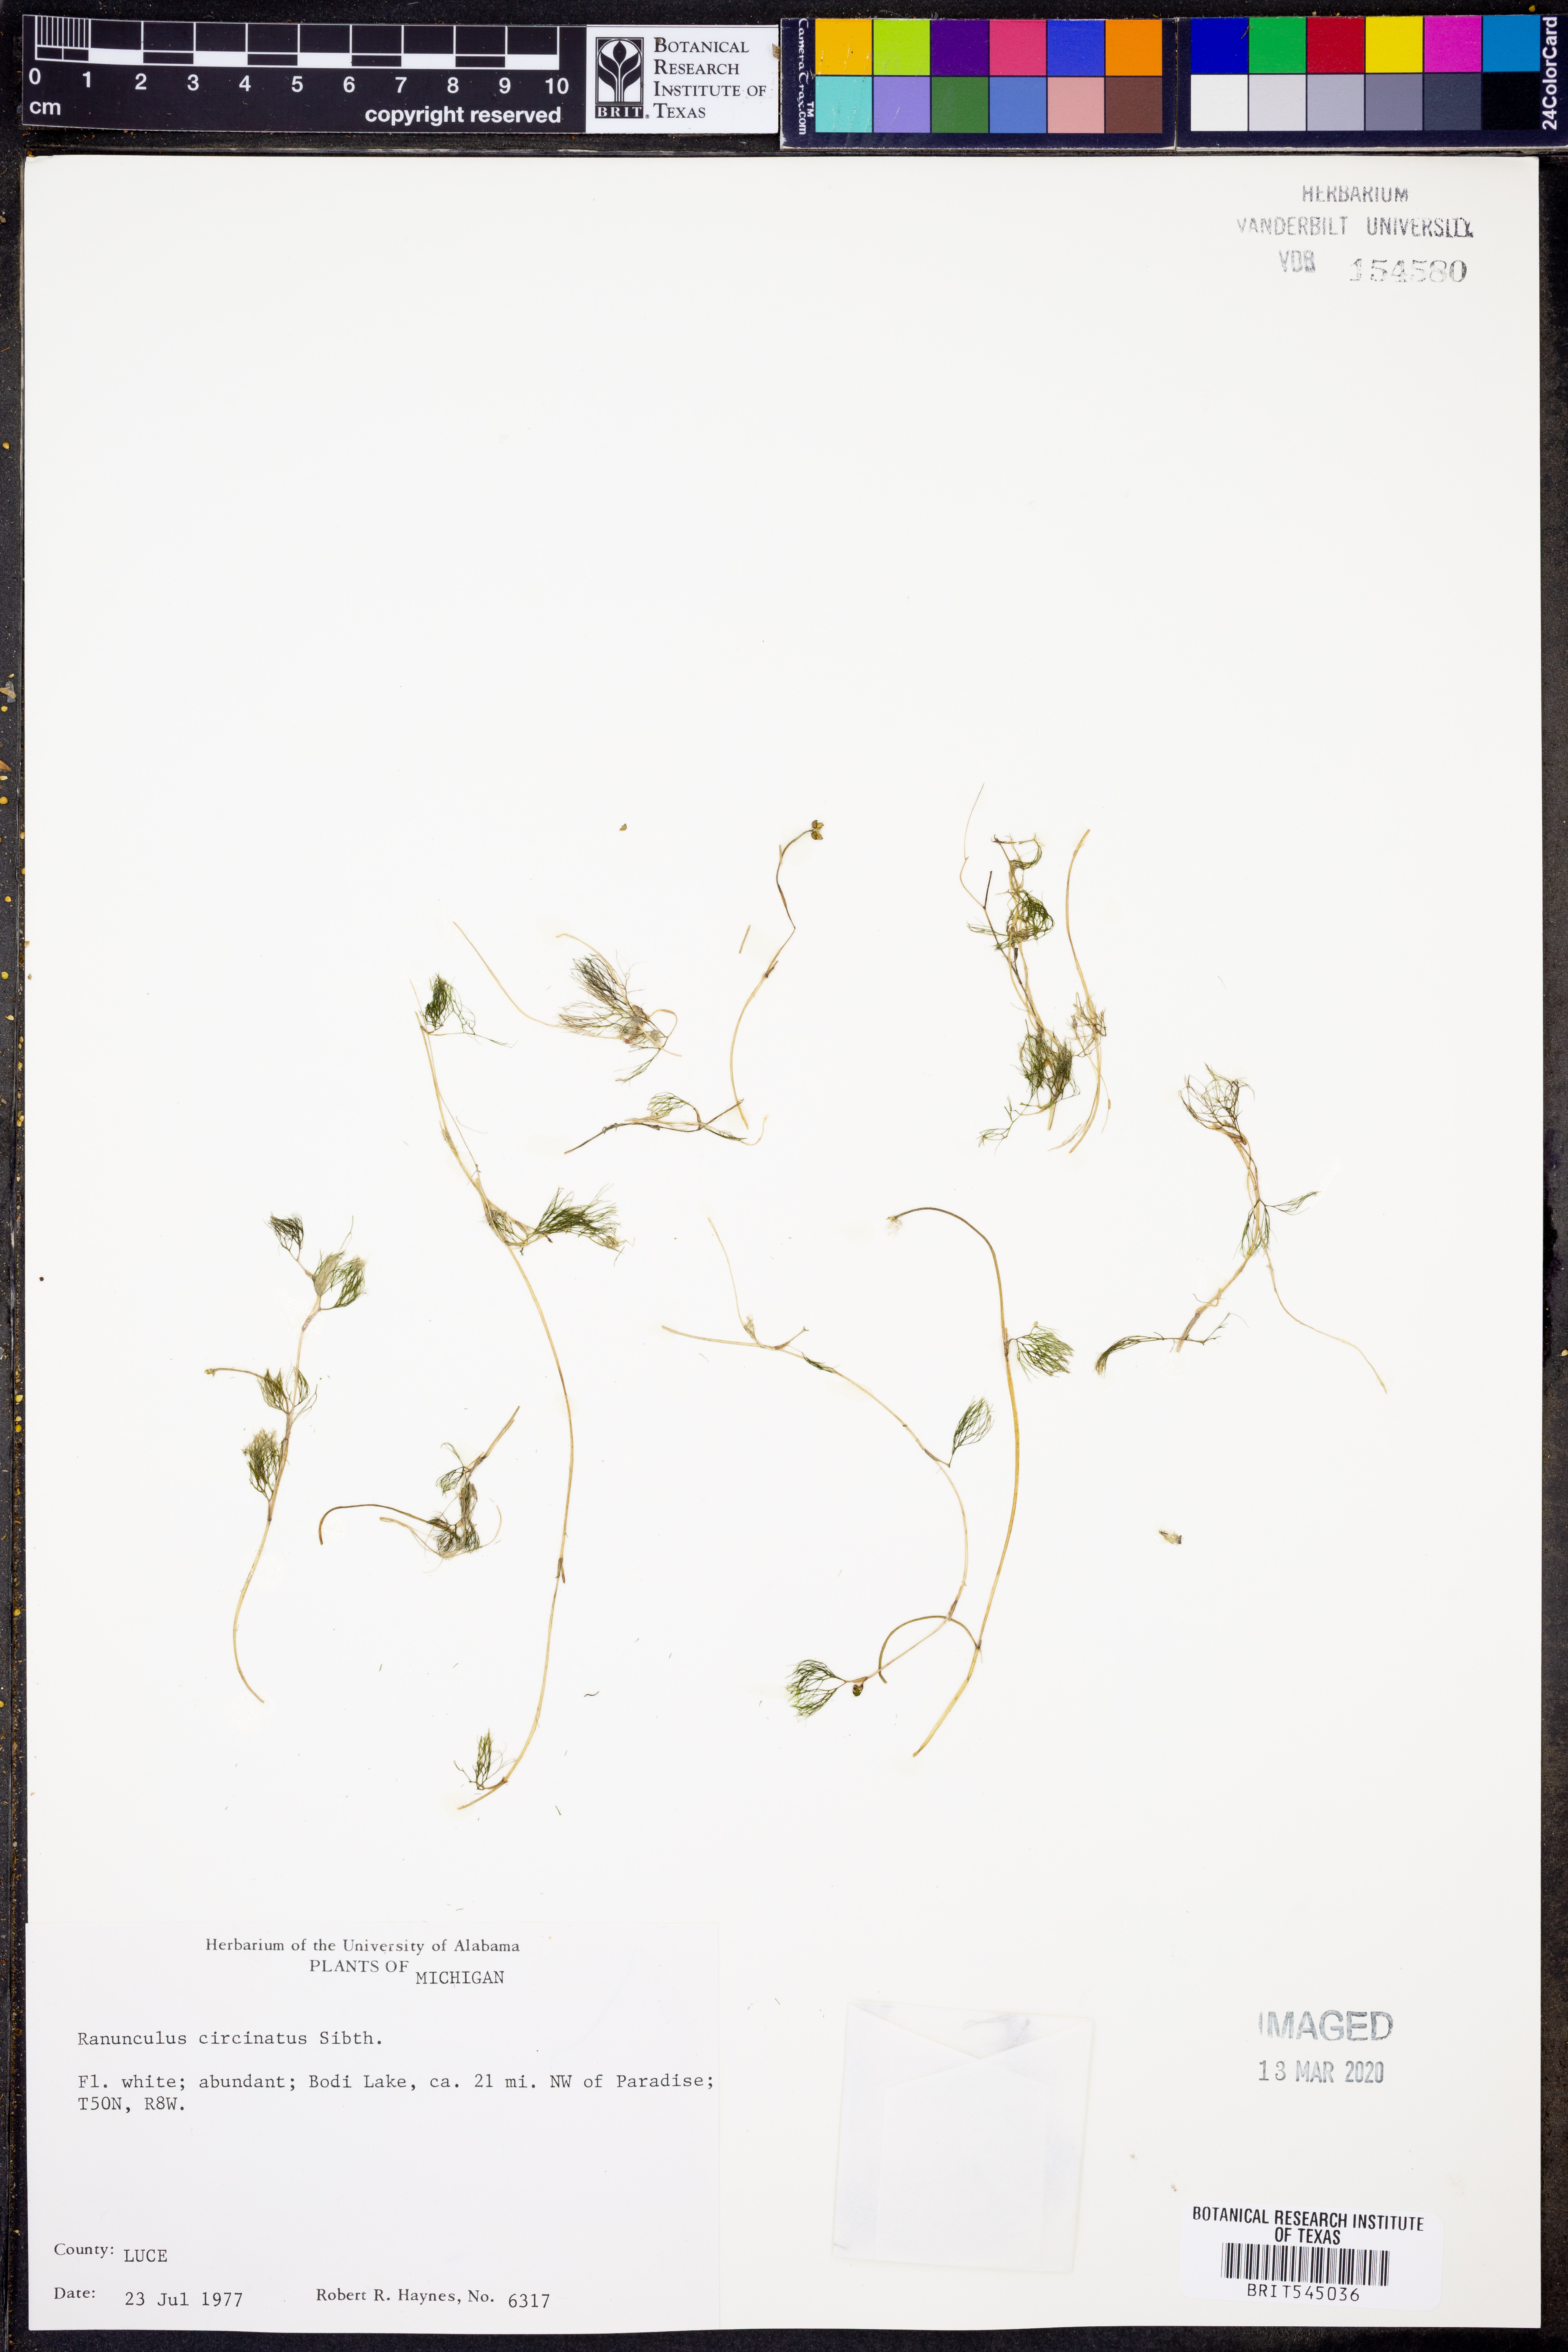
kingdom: Plantae
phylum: Tracheophyta
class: Magnoliopsida
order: Ranunculales
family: Ranunculaceae
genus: Ranunculus
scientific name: Ranunculus circinatus
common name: Fan-leaved water-crowfoot
